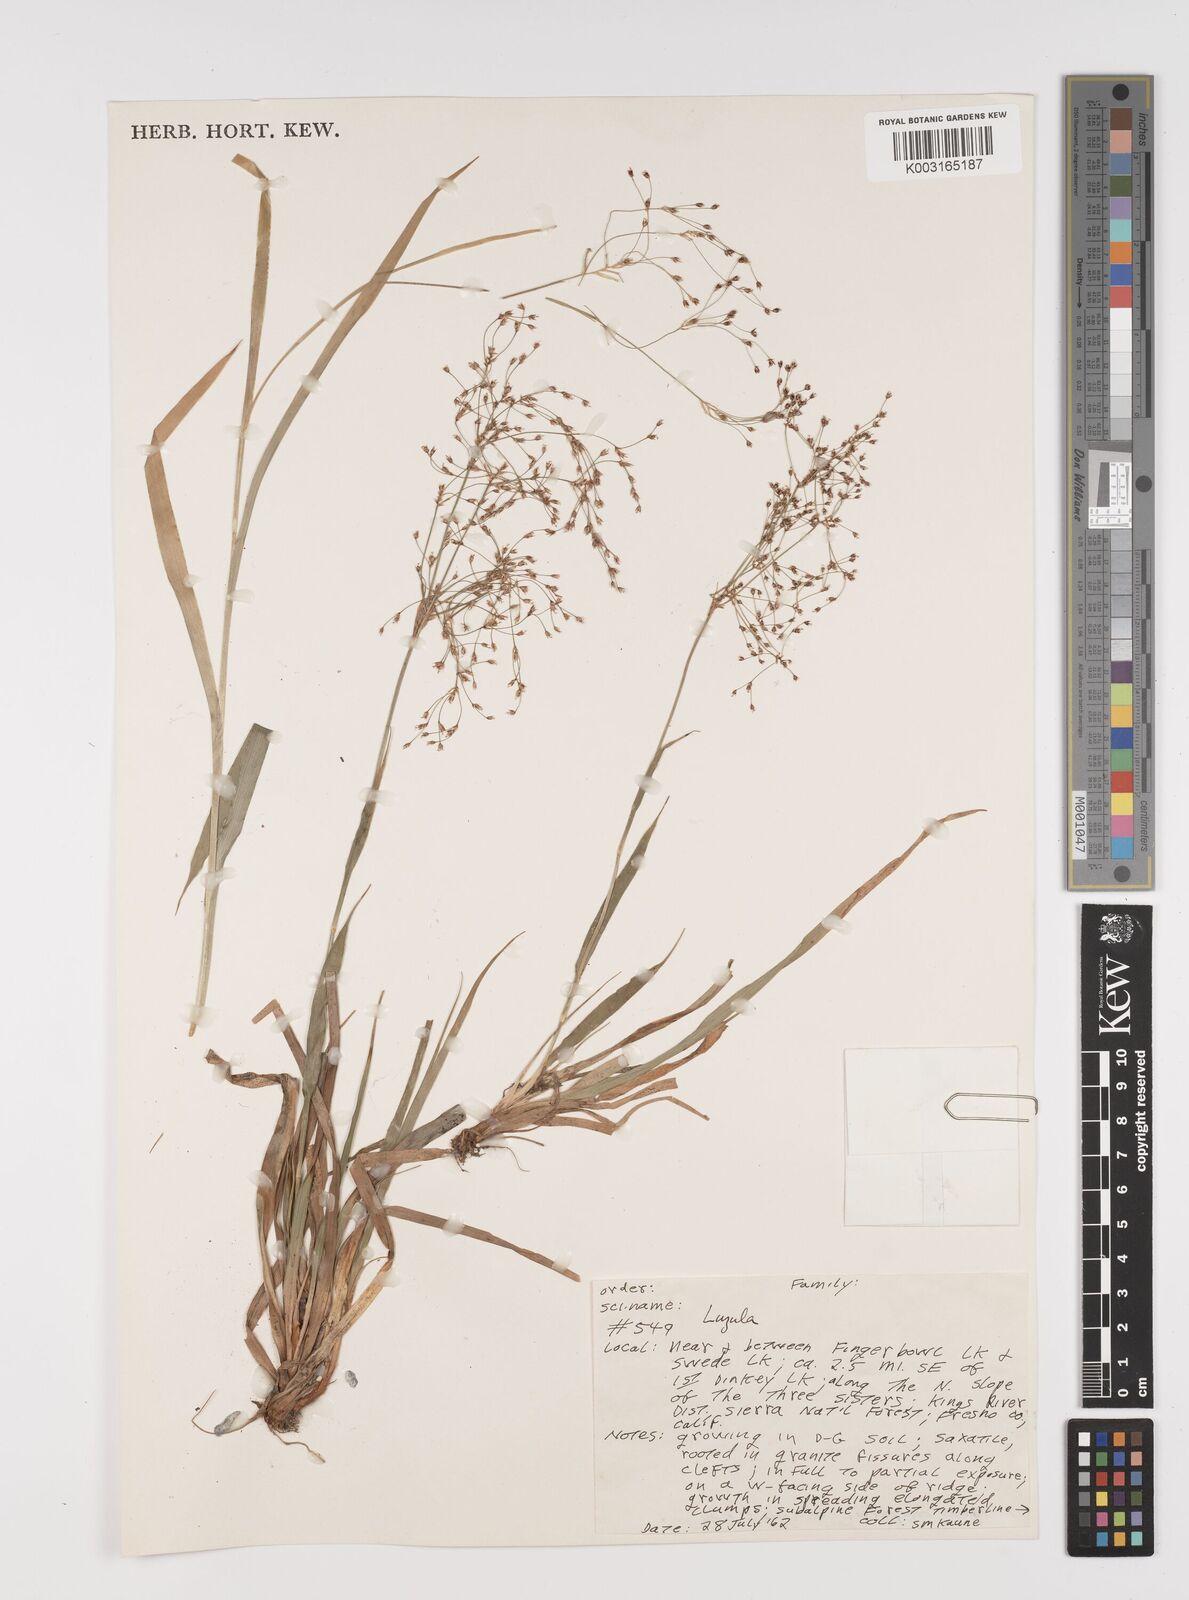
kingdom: Plantae
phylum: Tracheophyta
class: Liliopsida
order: Poales
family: Juncaceae
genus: Luzula
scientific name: Luzula
